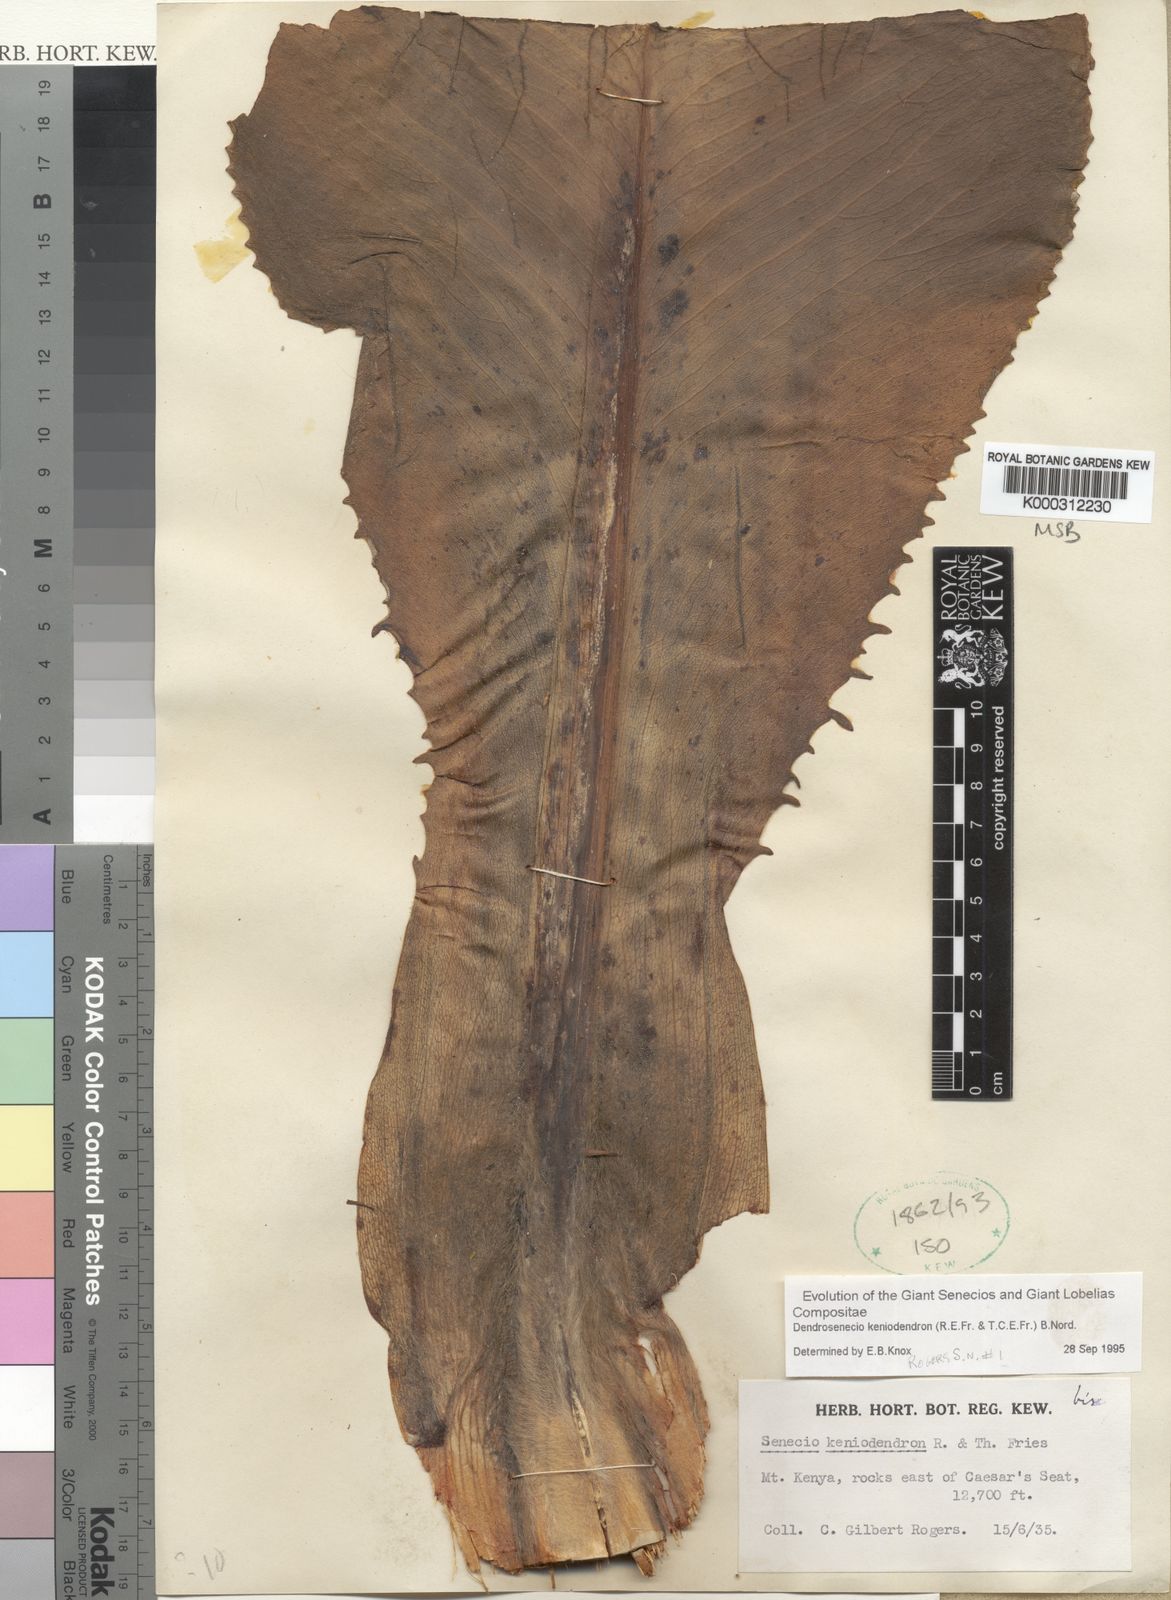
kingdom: Plantae
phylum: Tracheophyta
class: Magnoliopsida
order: Asterales
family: Asteraceae
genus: Dendrosenecio
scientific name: Dendrosenecio keniodendron
